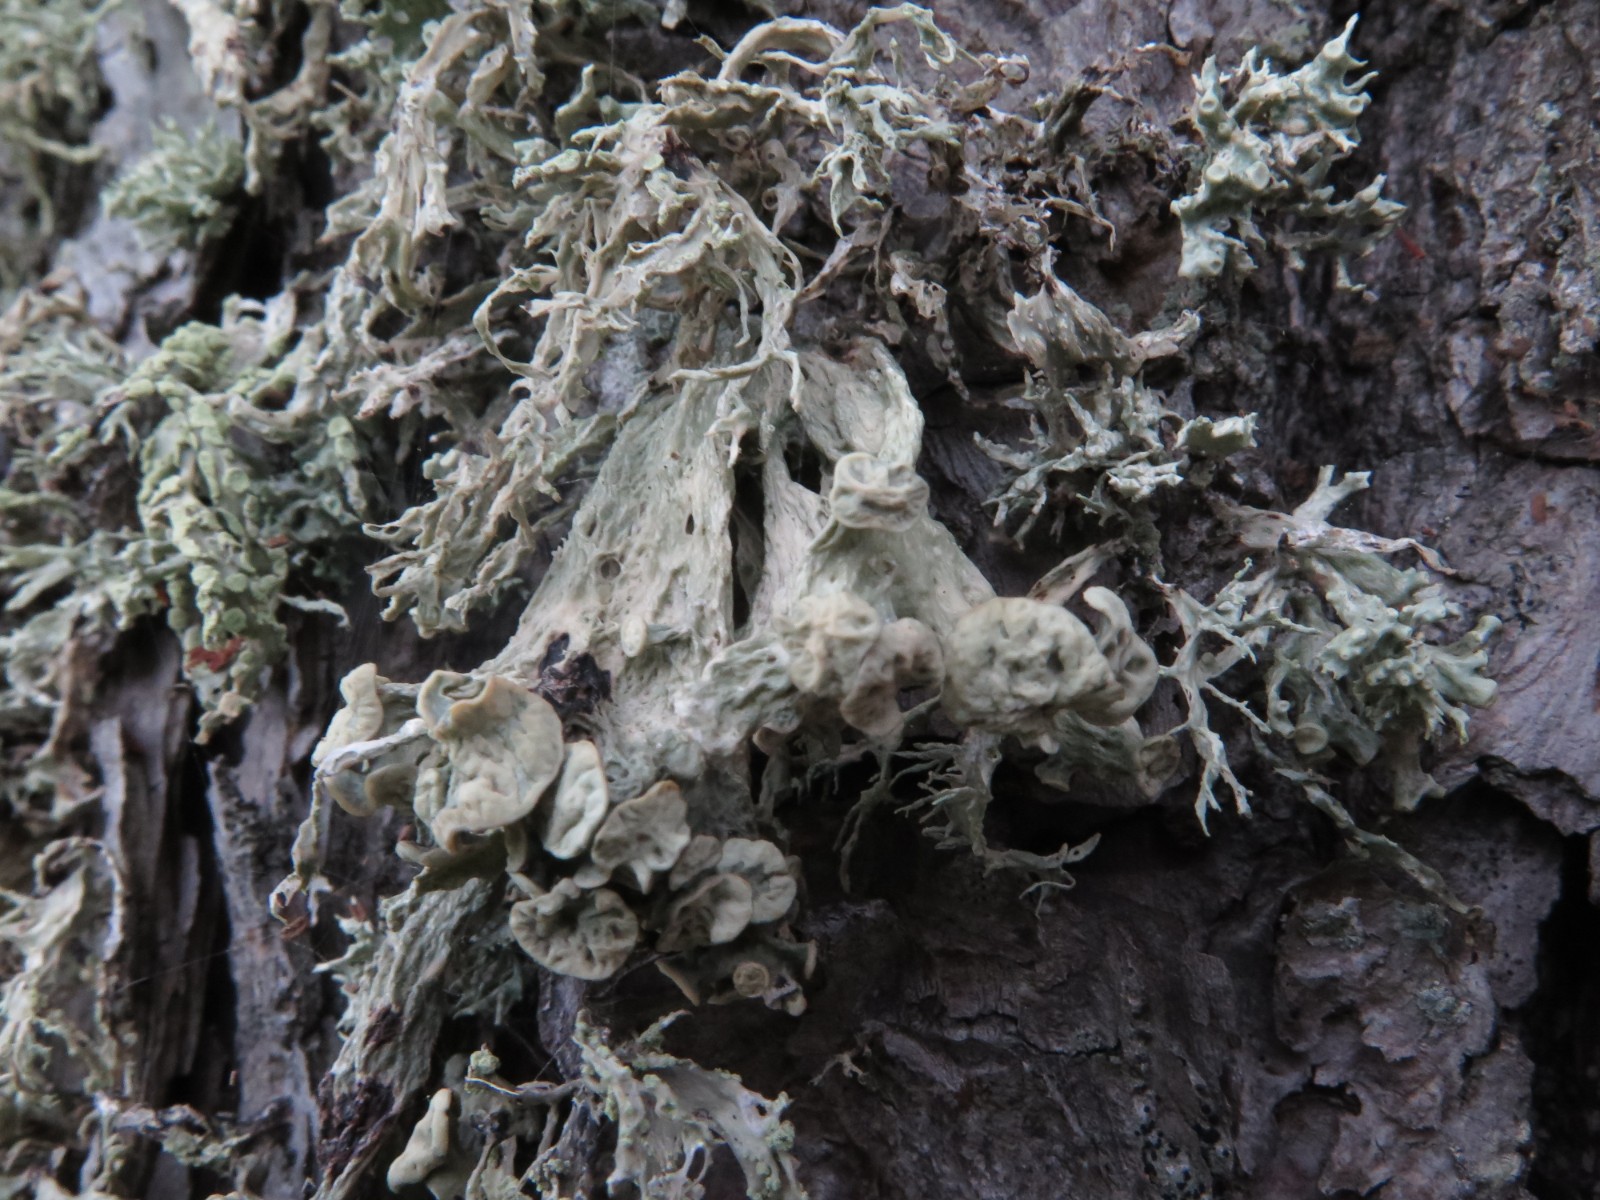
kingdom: Fungi
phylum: Ascomycota
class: Lecanoromycetes
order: Lecanorales
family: Ramalinaceae
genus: Ramalina
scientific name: Ramalina fraxinea
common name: stor grenlav
